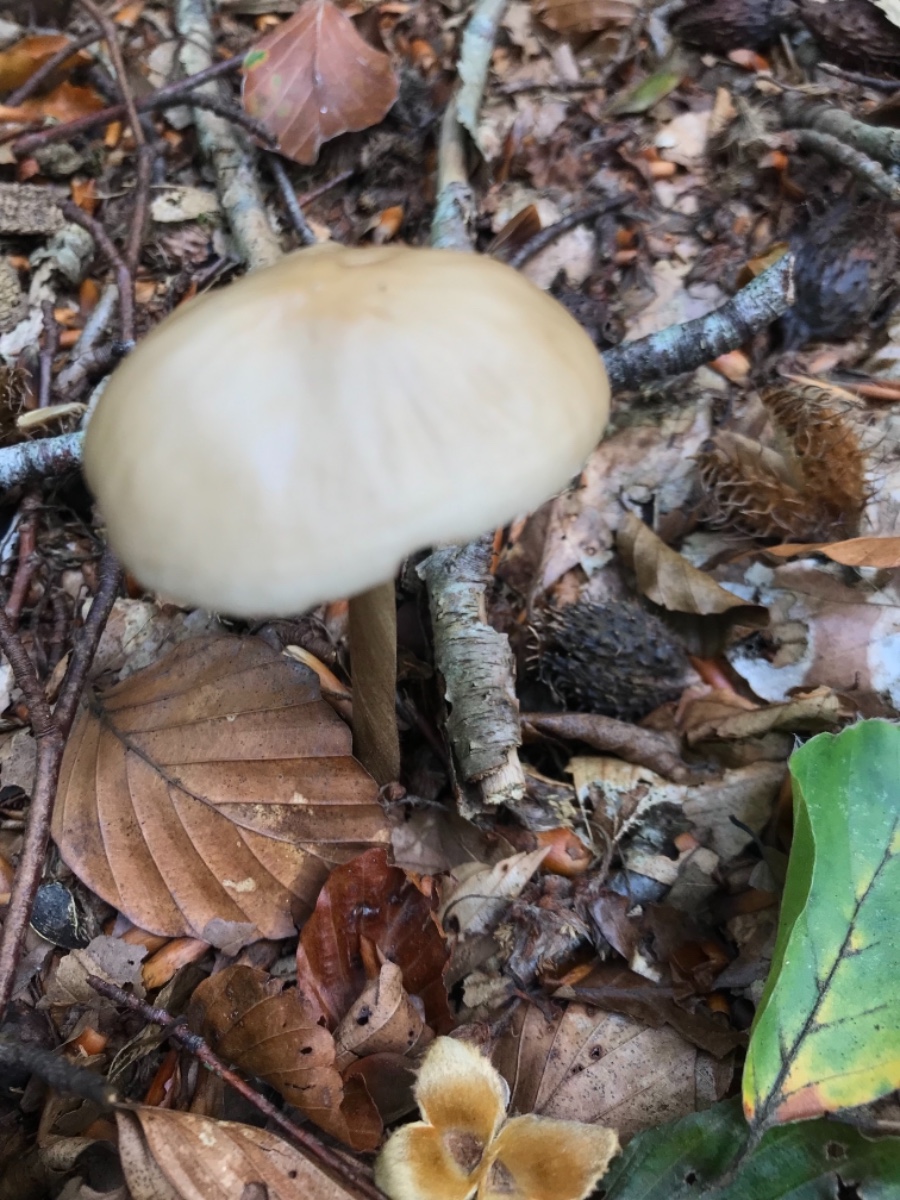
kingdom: Fungi
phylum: Basidiomycota
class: Agaricomycetes
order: Agaricales
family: Physalacriaceae
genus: Hymenopellis
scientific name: Hymenopellis radicata
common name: almindelig pælerodshat
